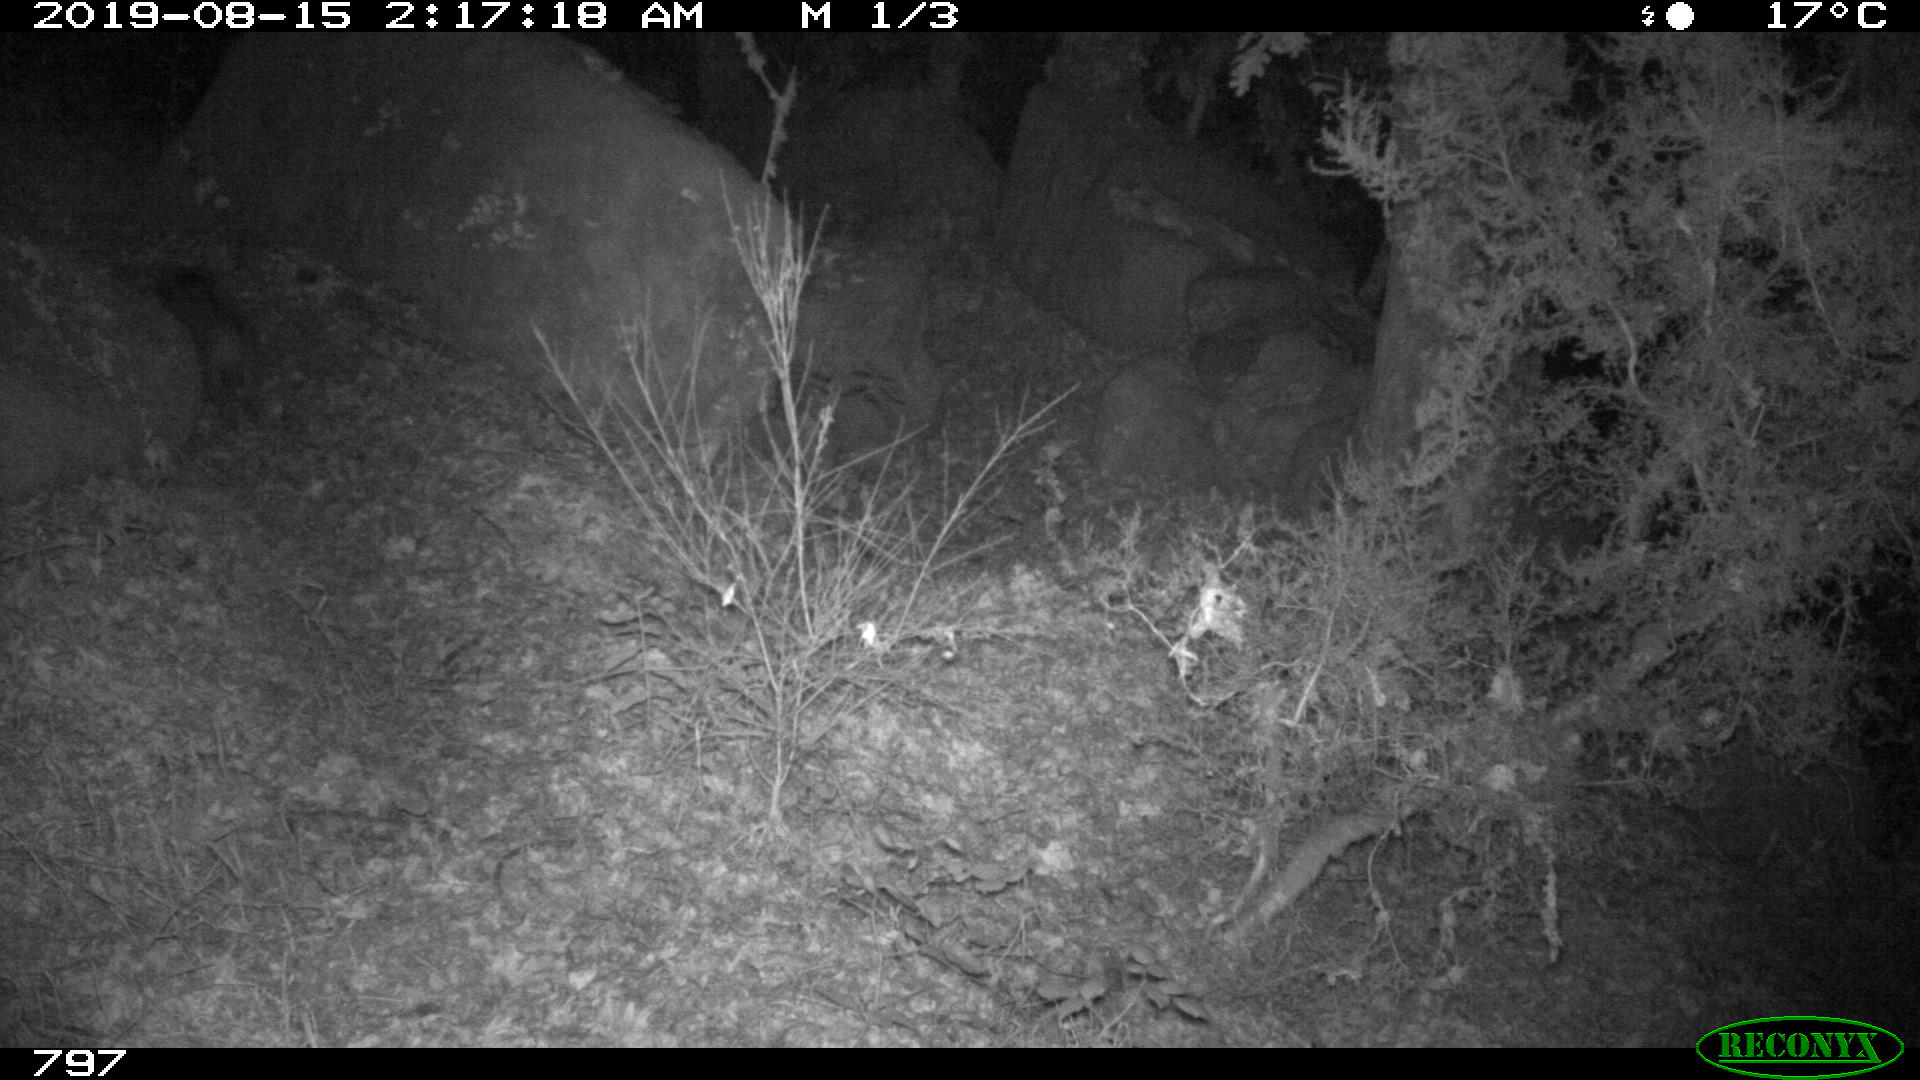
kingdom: Animalia
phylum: Chordata
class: Mammalia
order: Artiodactyla
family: Suidae
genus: Sus
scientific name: Sus scrofa
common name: Wild boar
